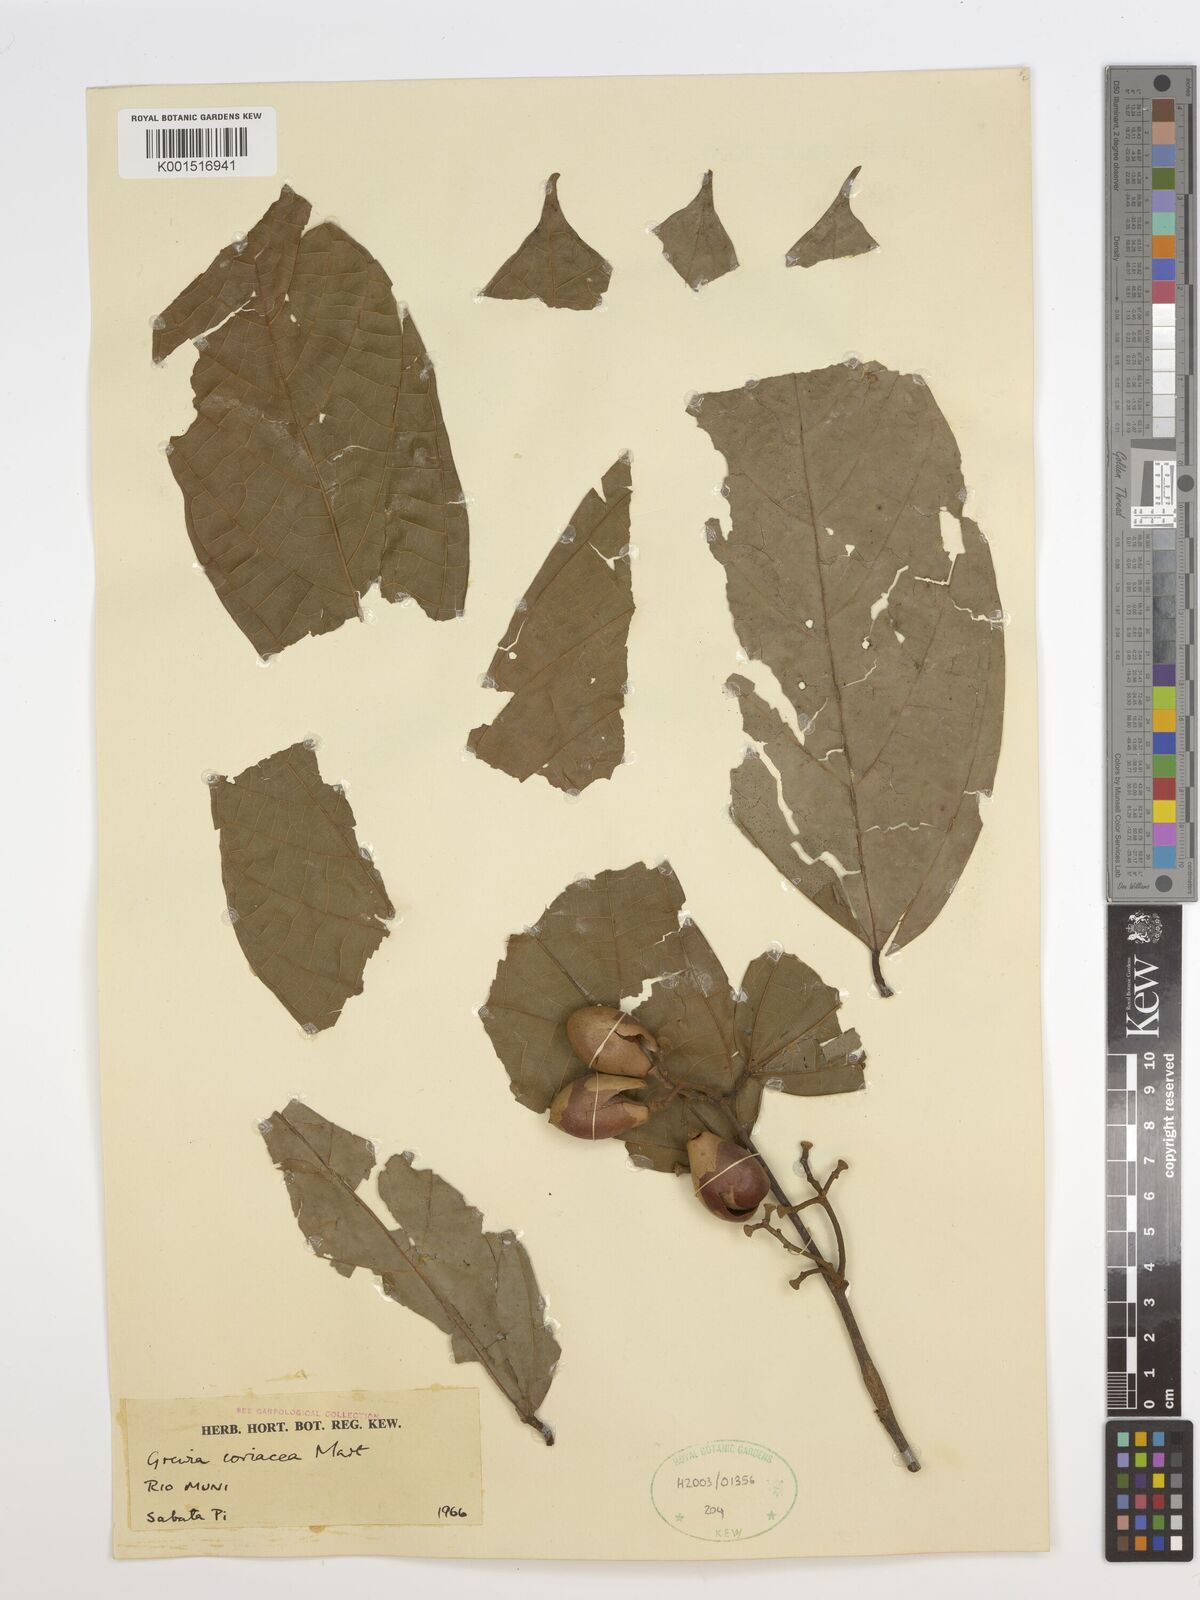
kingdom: Plantae
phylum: Tracheophyta
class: Magnoliopsida
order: Malvales
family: Malvaceae
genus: Microcos
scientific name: Microcos coriacea
